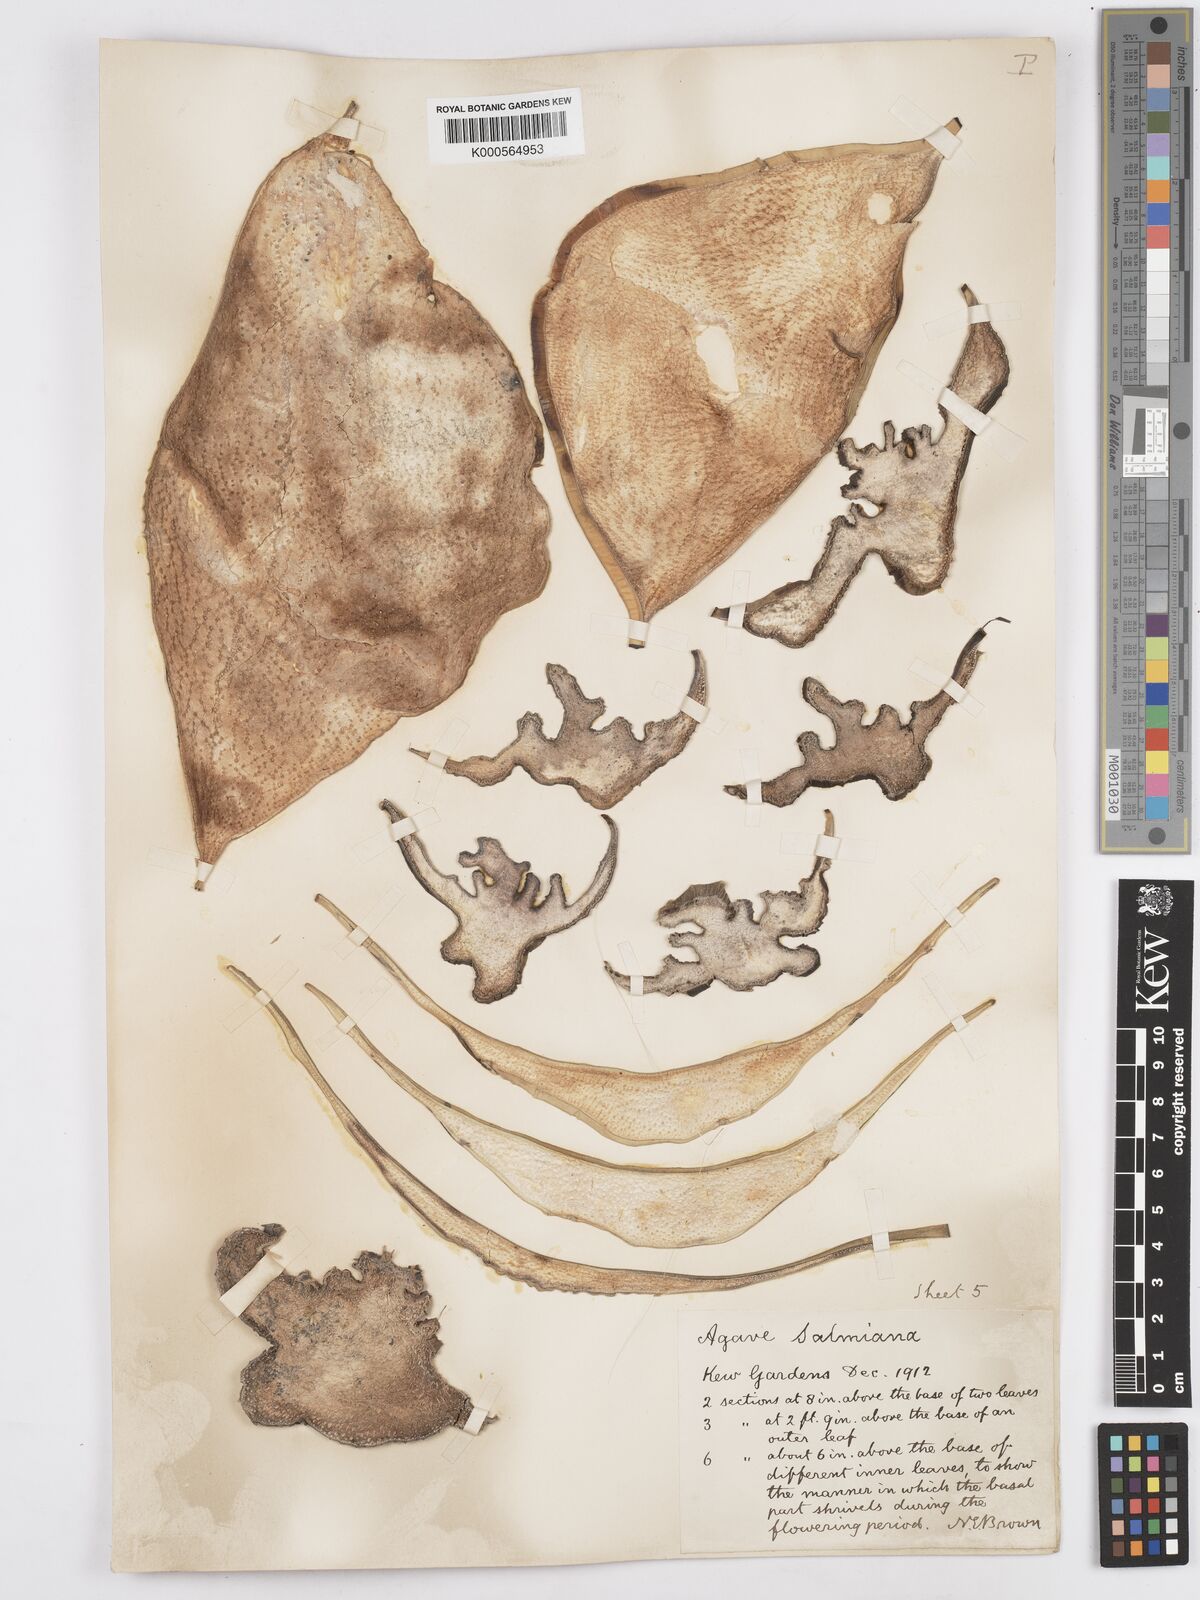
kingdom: Plantae
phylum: Tracheophyta
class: Liliopsida
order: Asparagales
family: Asparagaceae
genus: Agave
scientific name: Agave salmiana
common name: Pulque agave
